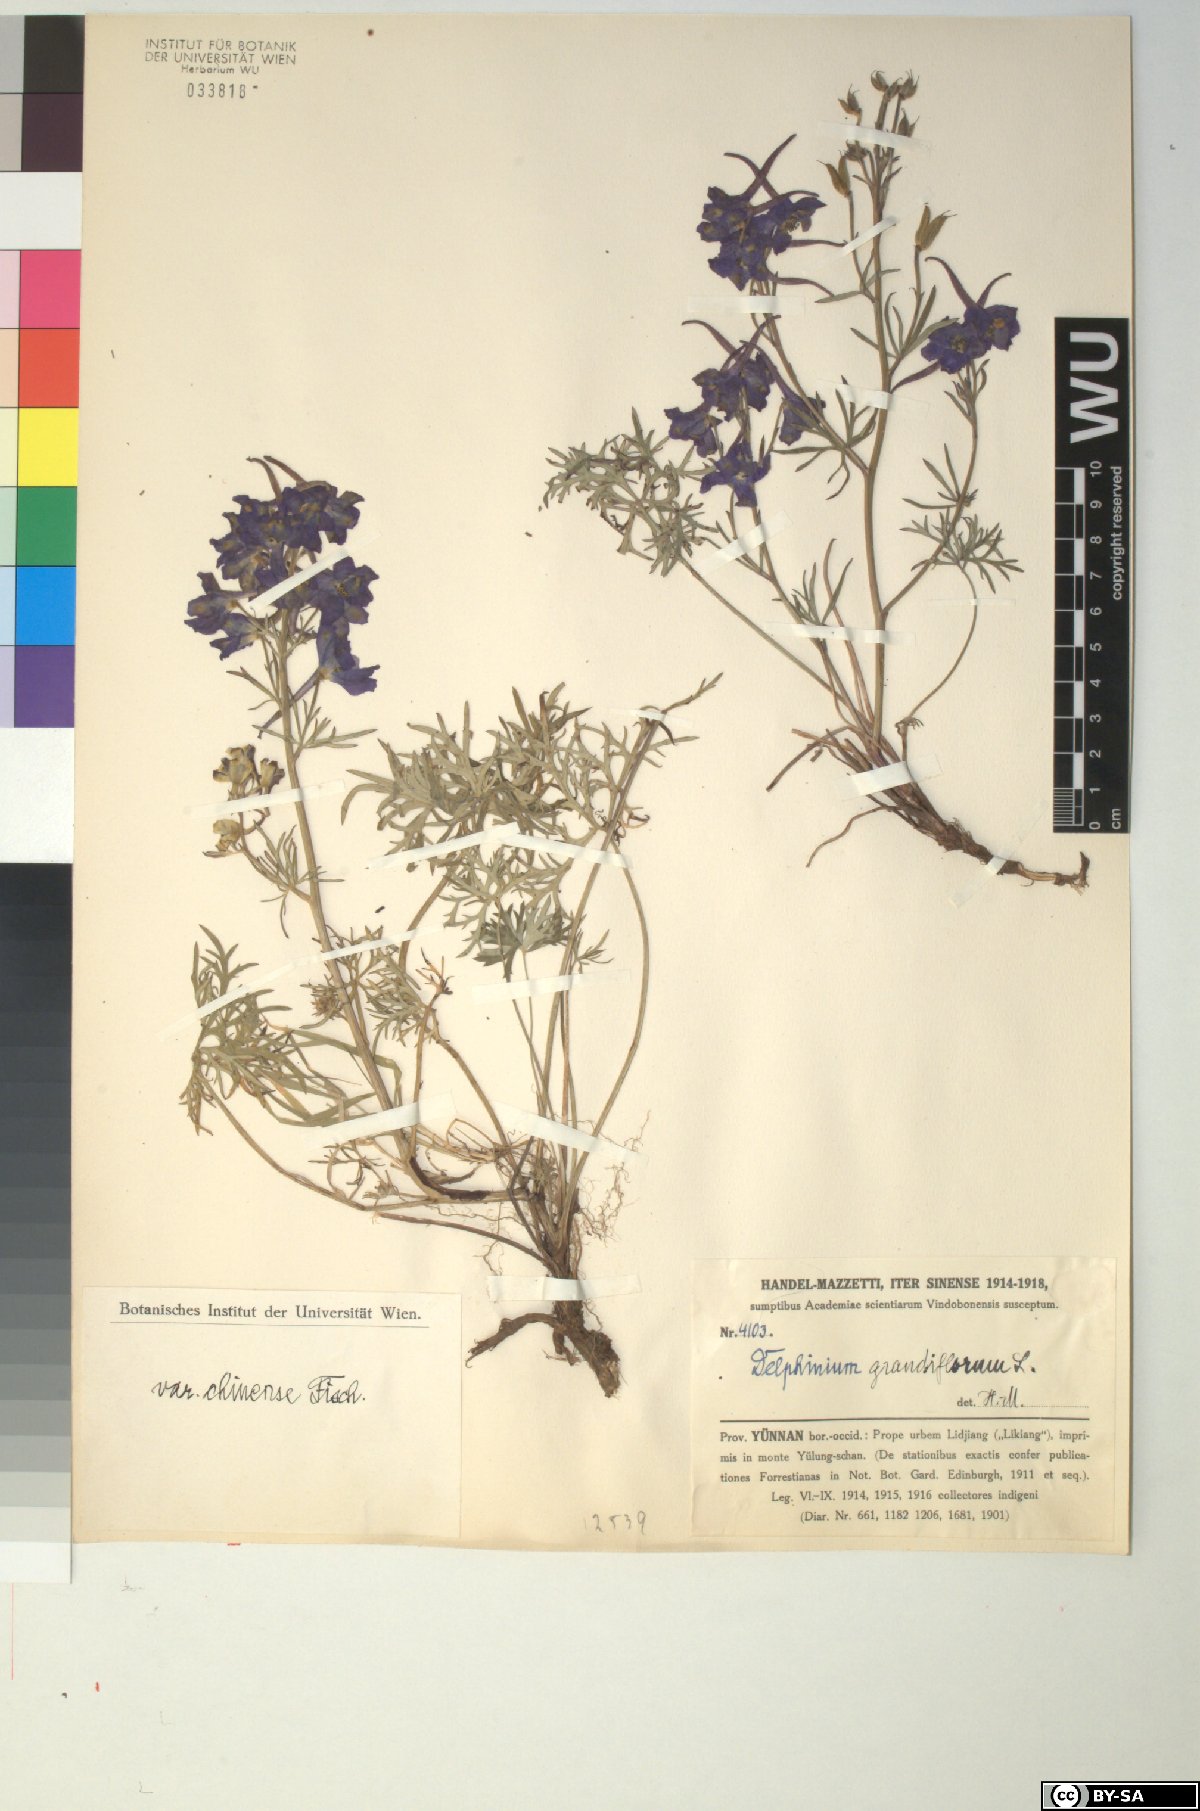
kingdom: Plantae
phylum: Tracheophyta
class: Magnoliopsida
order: Ranunculales
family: Ranunculaceae
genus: Delphinium
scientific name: Delphinium grandiflorum
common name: Siberian larkspur
